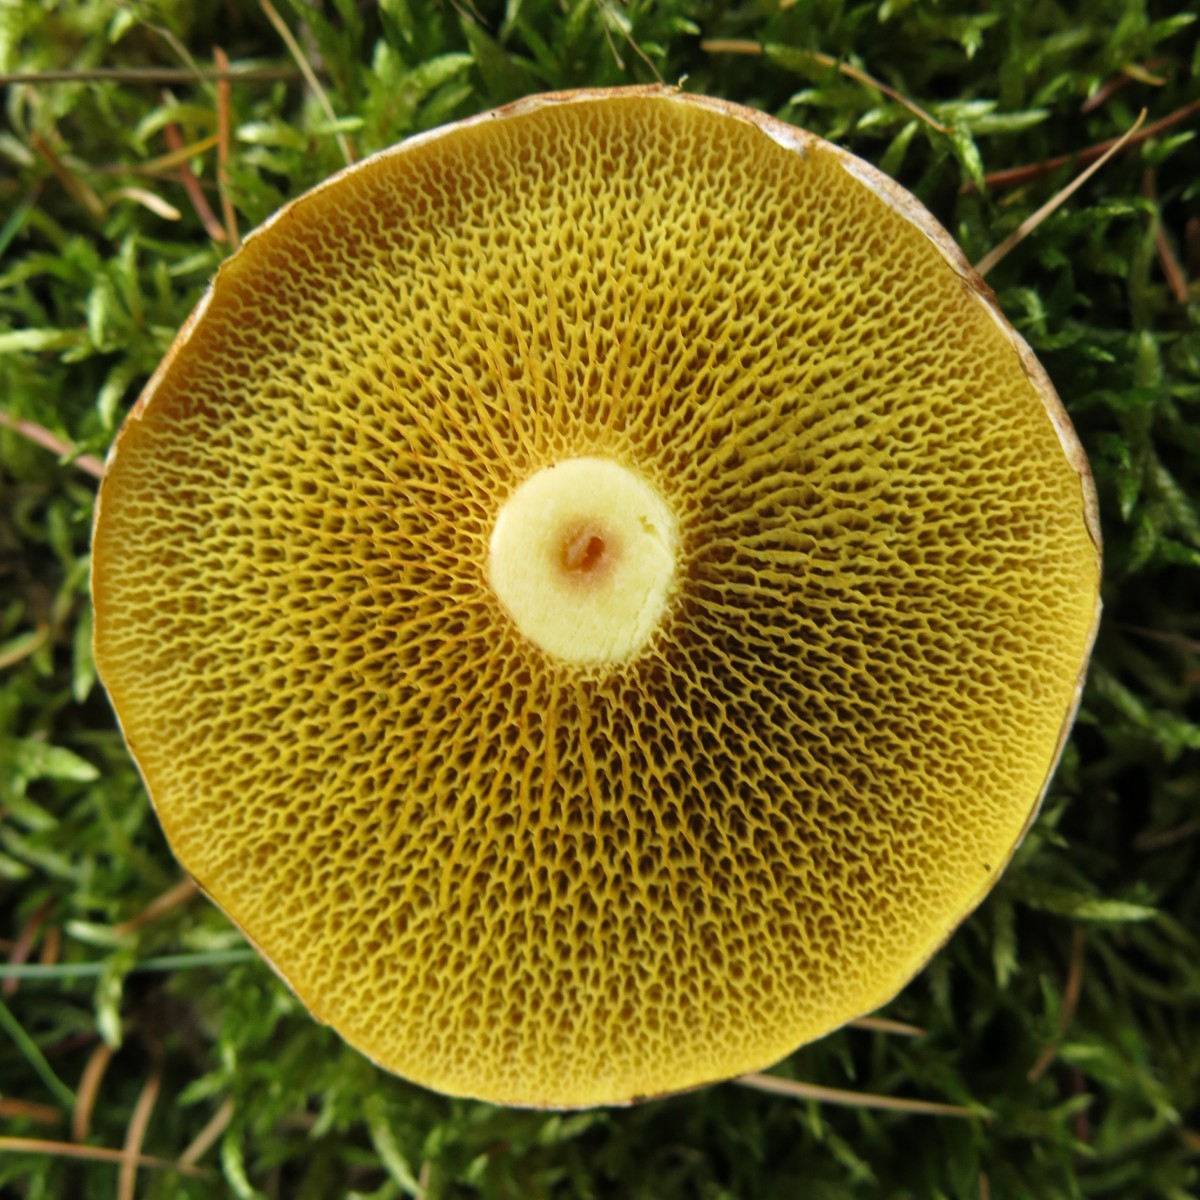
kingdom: Fungi
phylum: Basidiomycota
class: Agaricomycetes
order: Boletales
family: Suillaceae
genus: Suillus
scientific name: Suillus cavipes
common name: hulstokket slimrørhat
